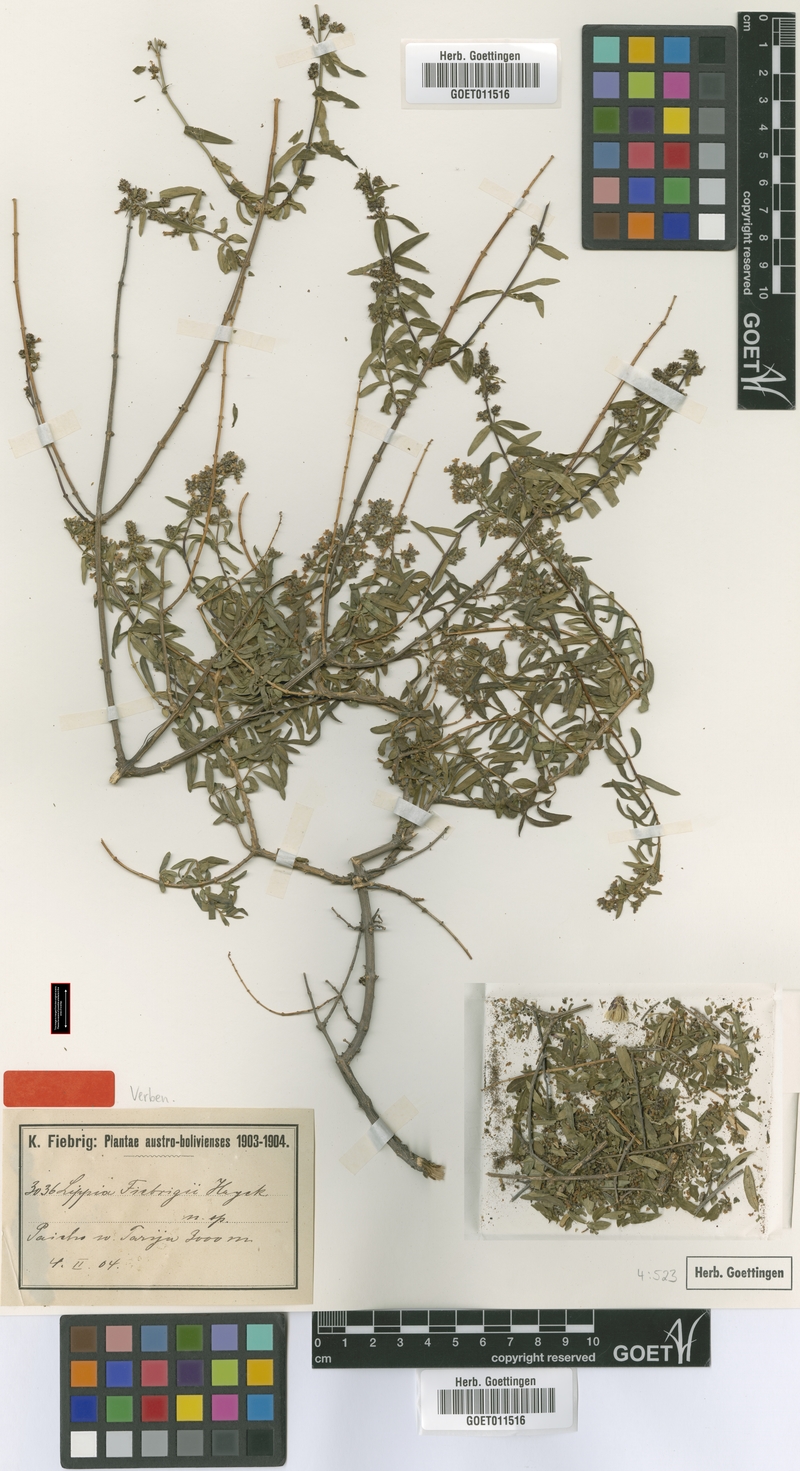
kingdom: Plantae
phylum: Tracheophyta
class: Magnoliopsida
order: Lamiales
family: Verbenaceae
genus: Aloysia
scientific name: Aloysia fiebrigii
